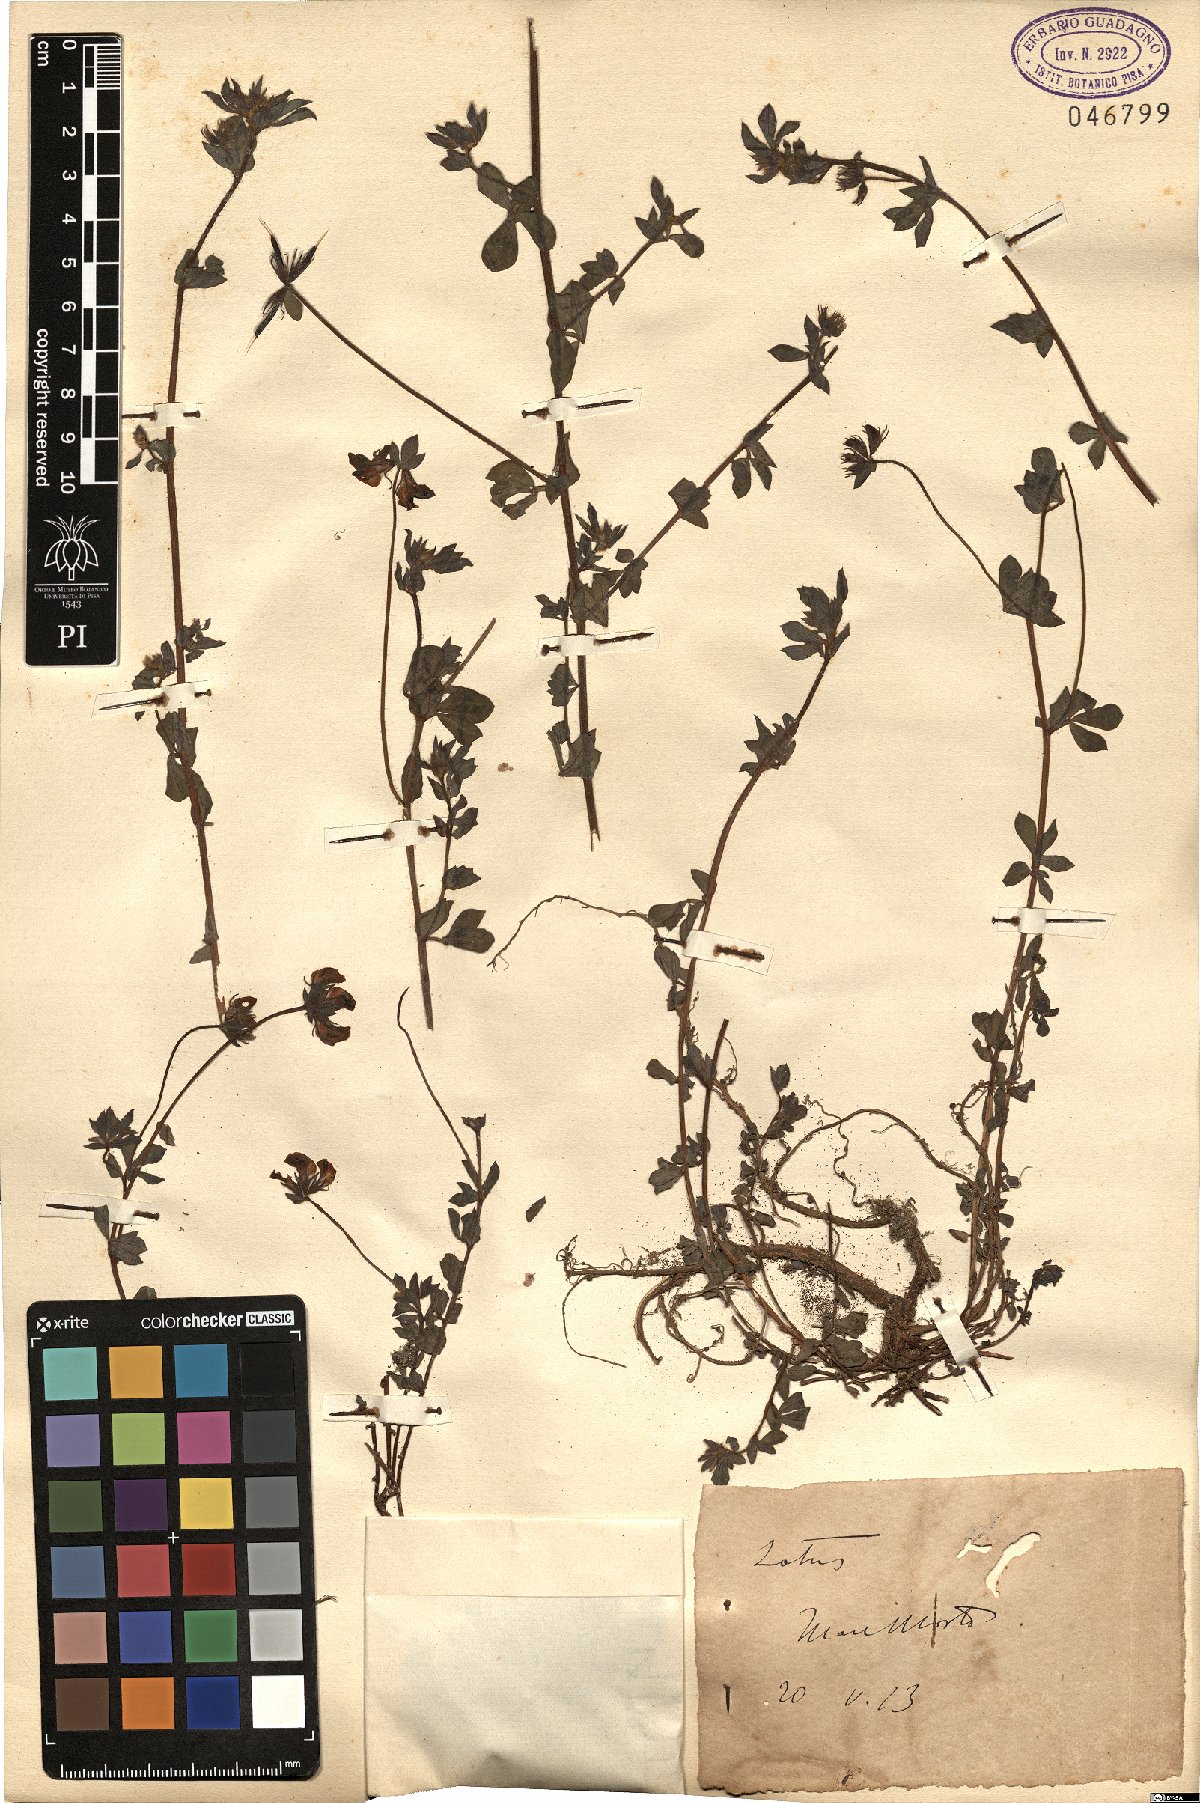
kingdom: Plantae
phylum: Tracheophyta
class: Magnoliopsida
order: Fabales
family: Fabaceae
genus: Lotus
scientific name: Lotus
